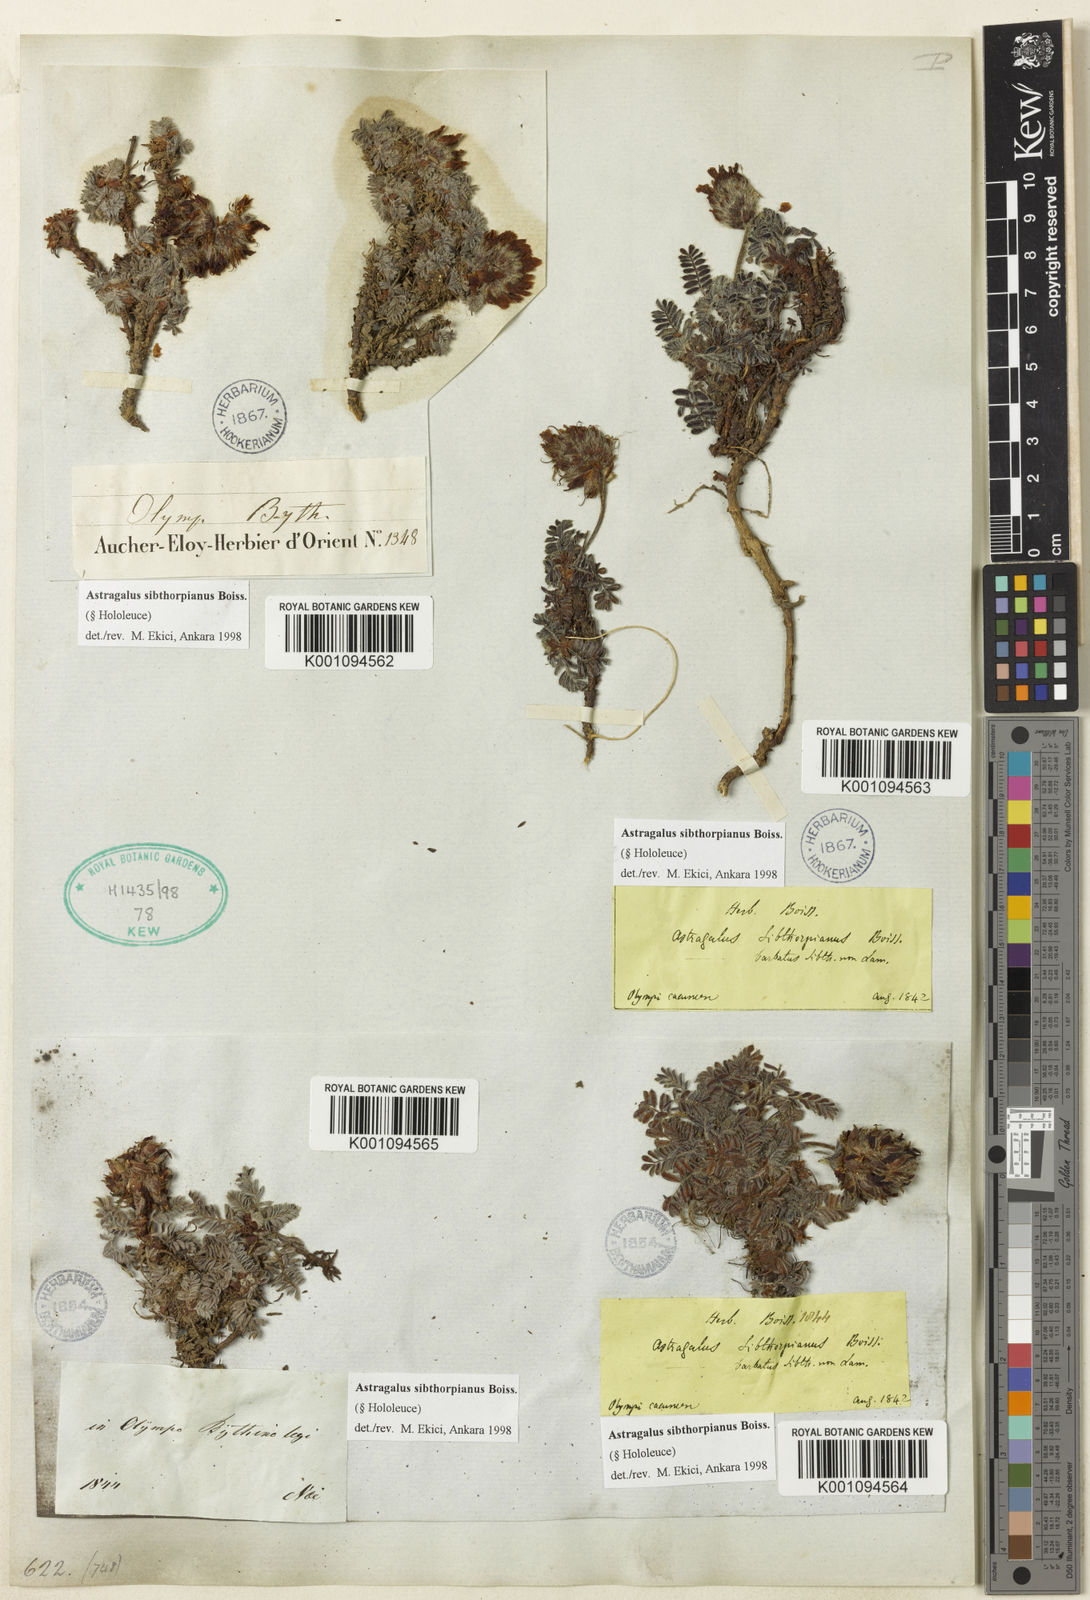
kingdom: Plantae
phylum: Tracheophyta
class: Magnoliopsida
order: Fabales
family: Fabaceae
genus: Astragalus
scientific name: Astragalus
